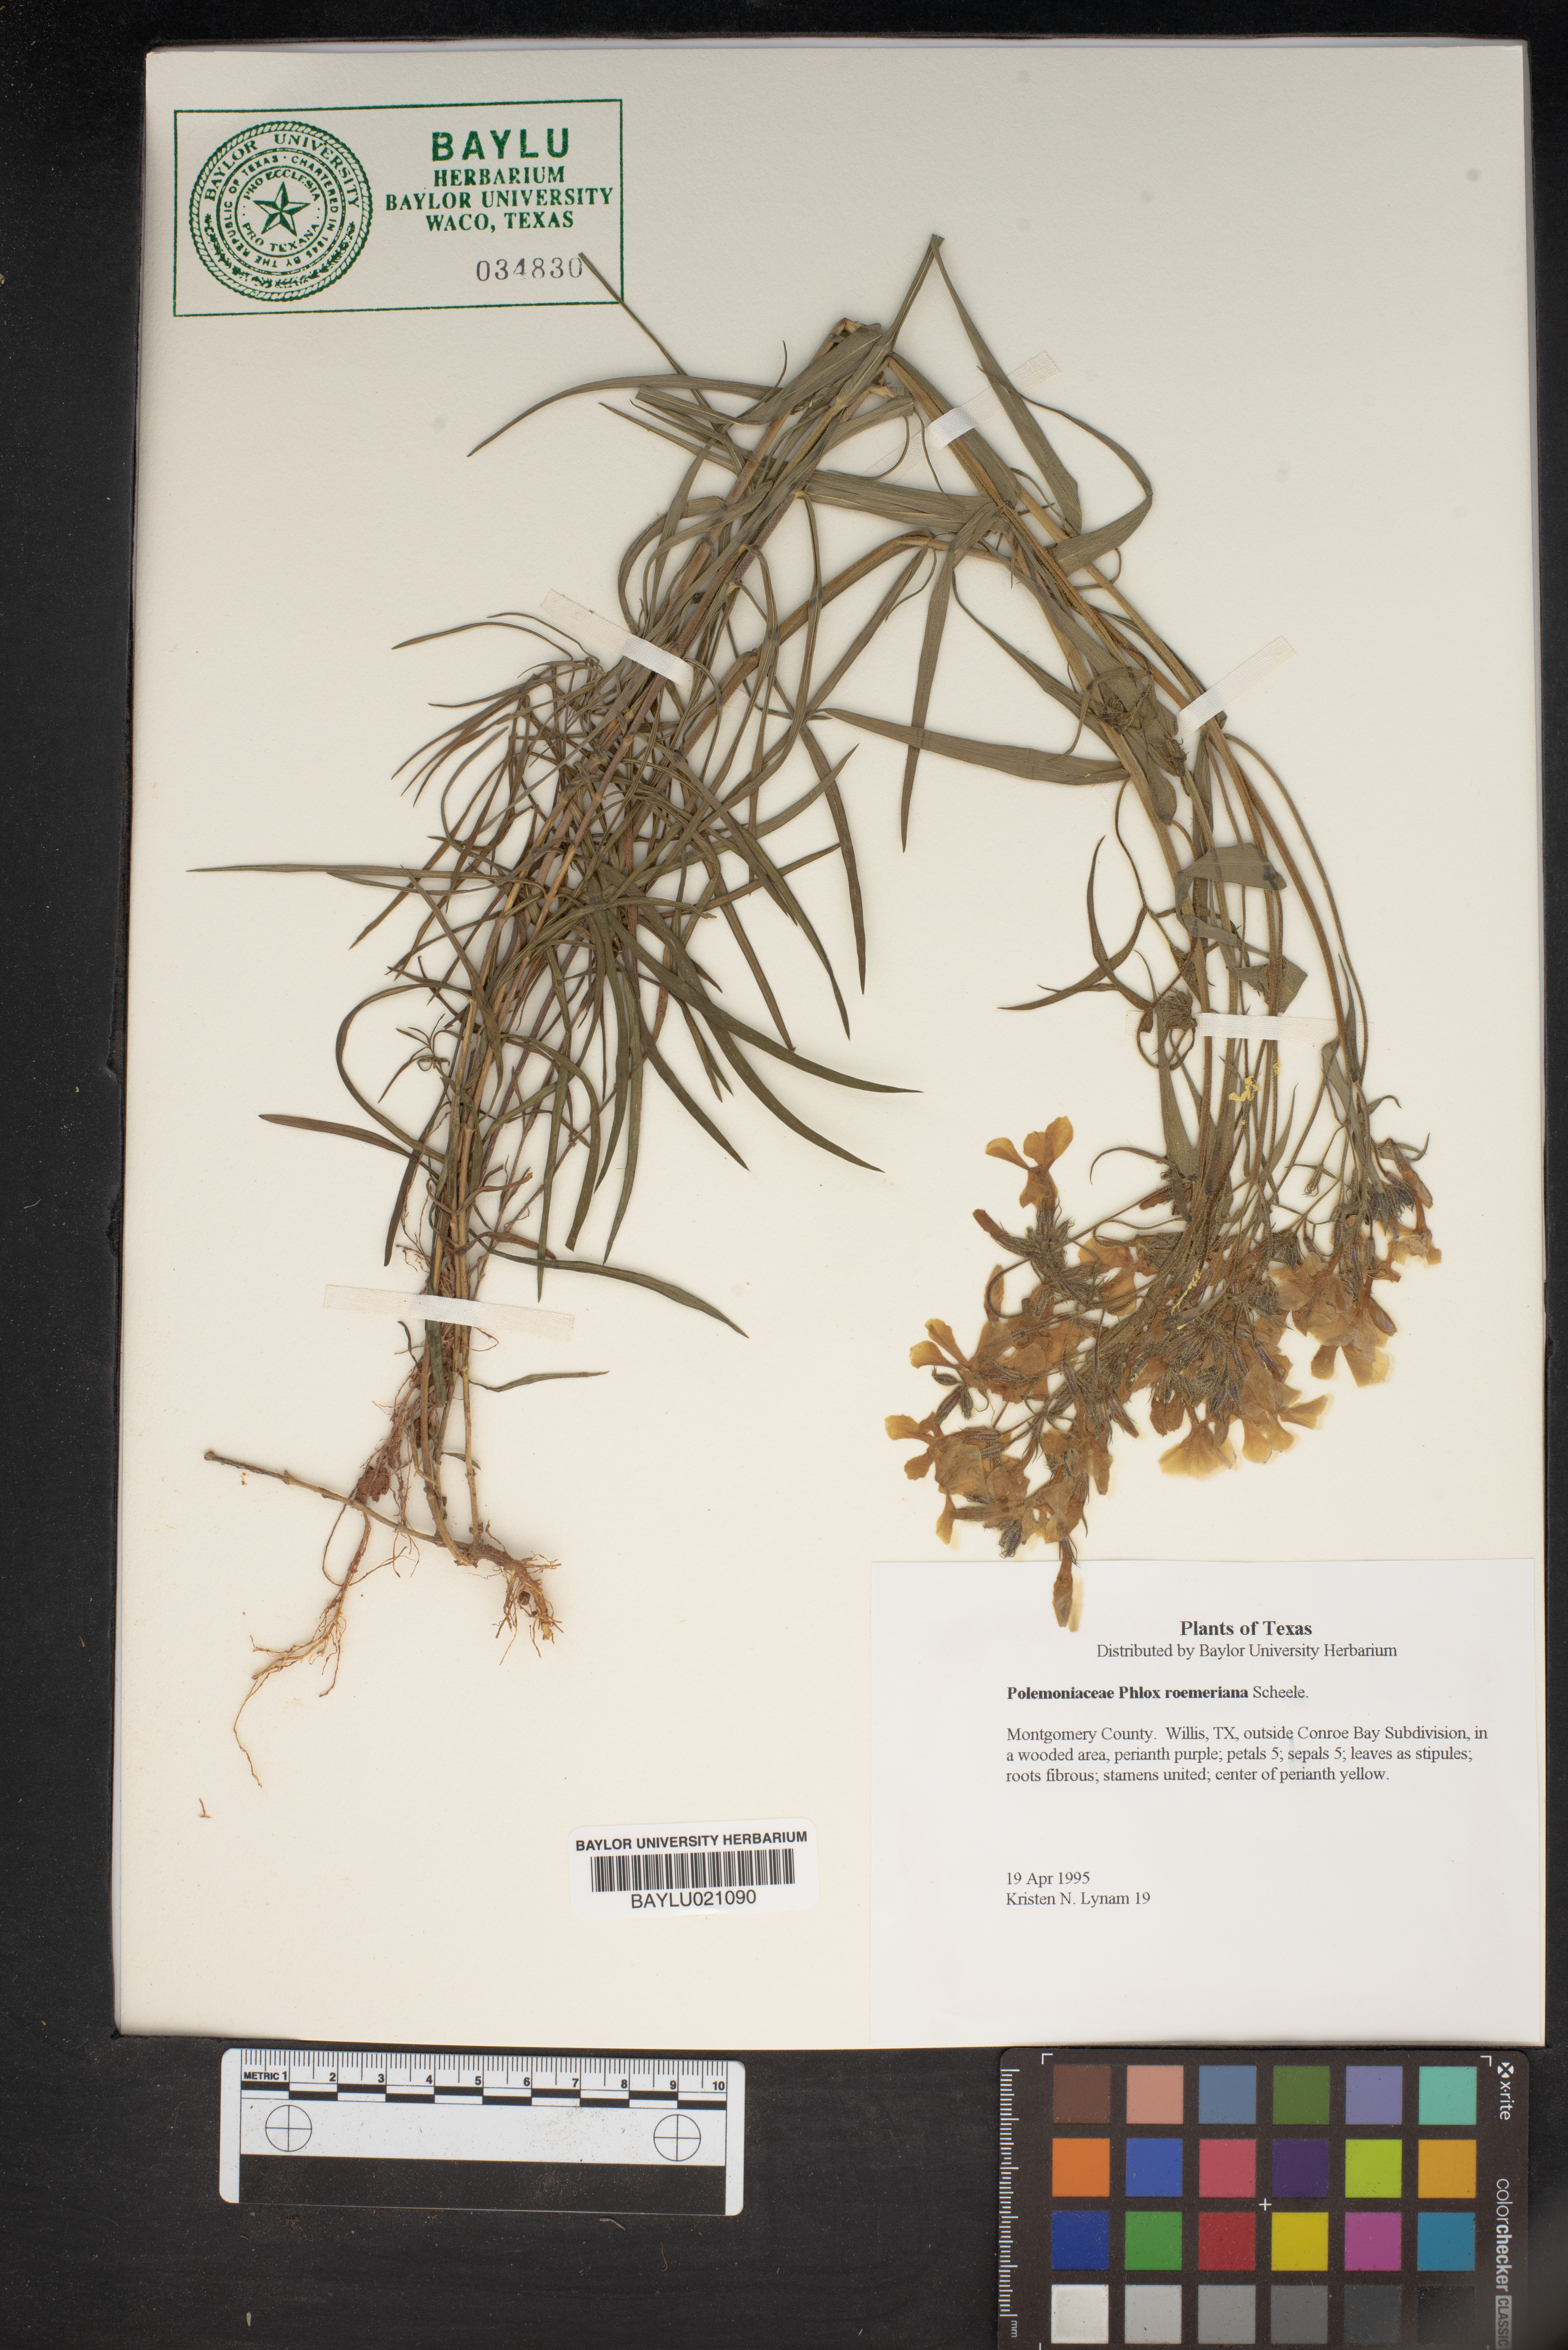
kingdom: Plantae
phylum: Tracheophyta
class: Magnoliopsida
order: Ericales
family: Polemoniaceae
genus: Phlox
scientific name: Phlox roemeriana
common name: Roemer's phlox
